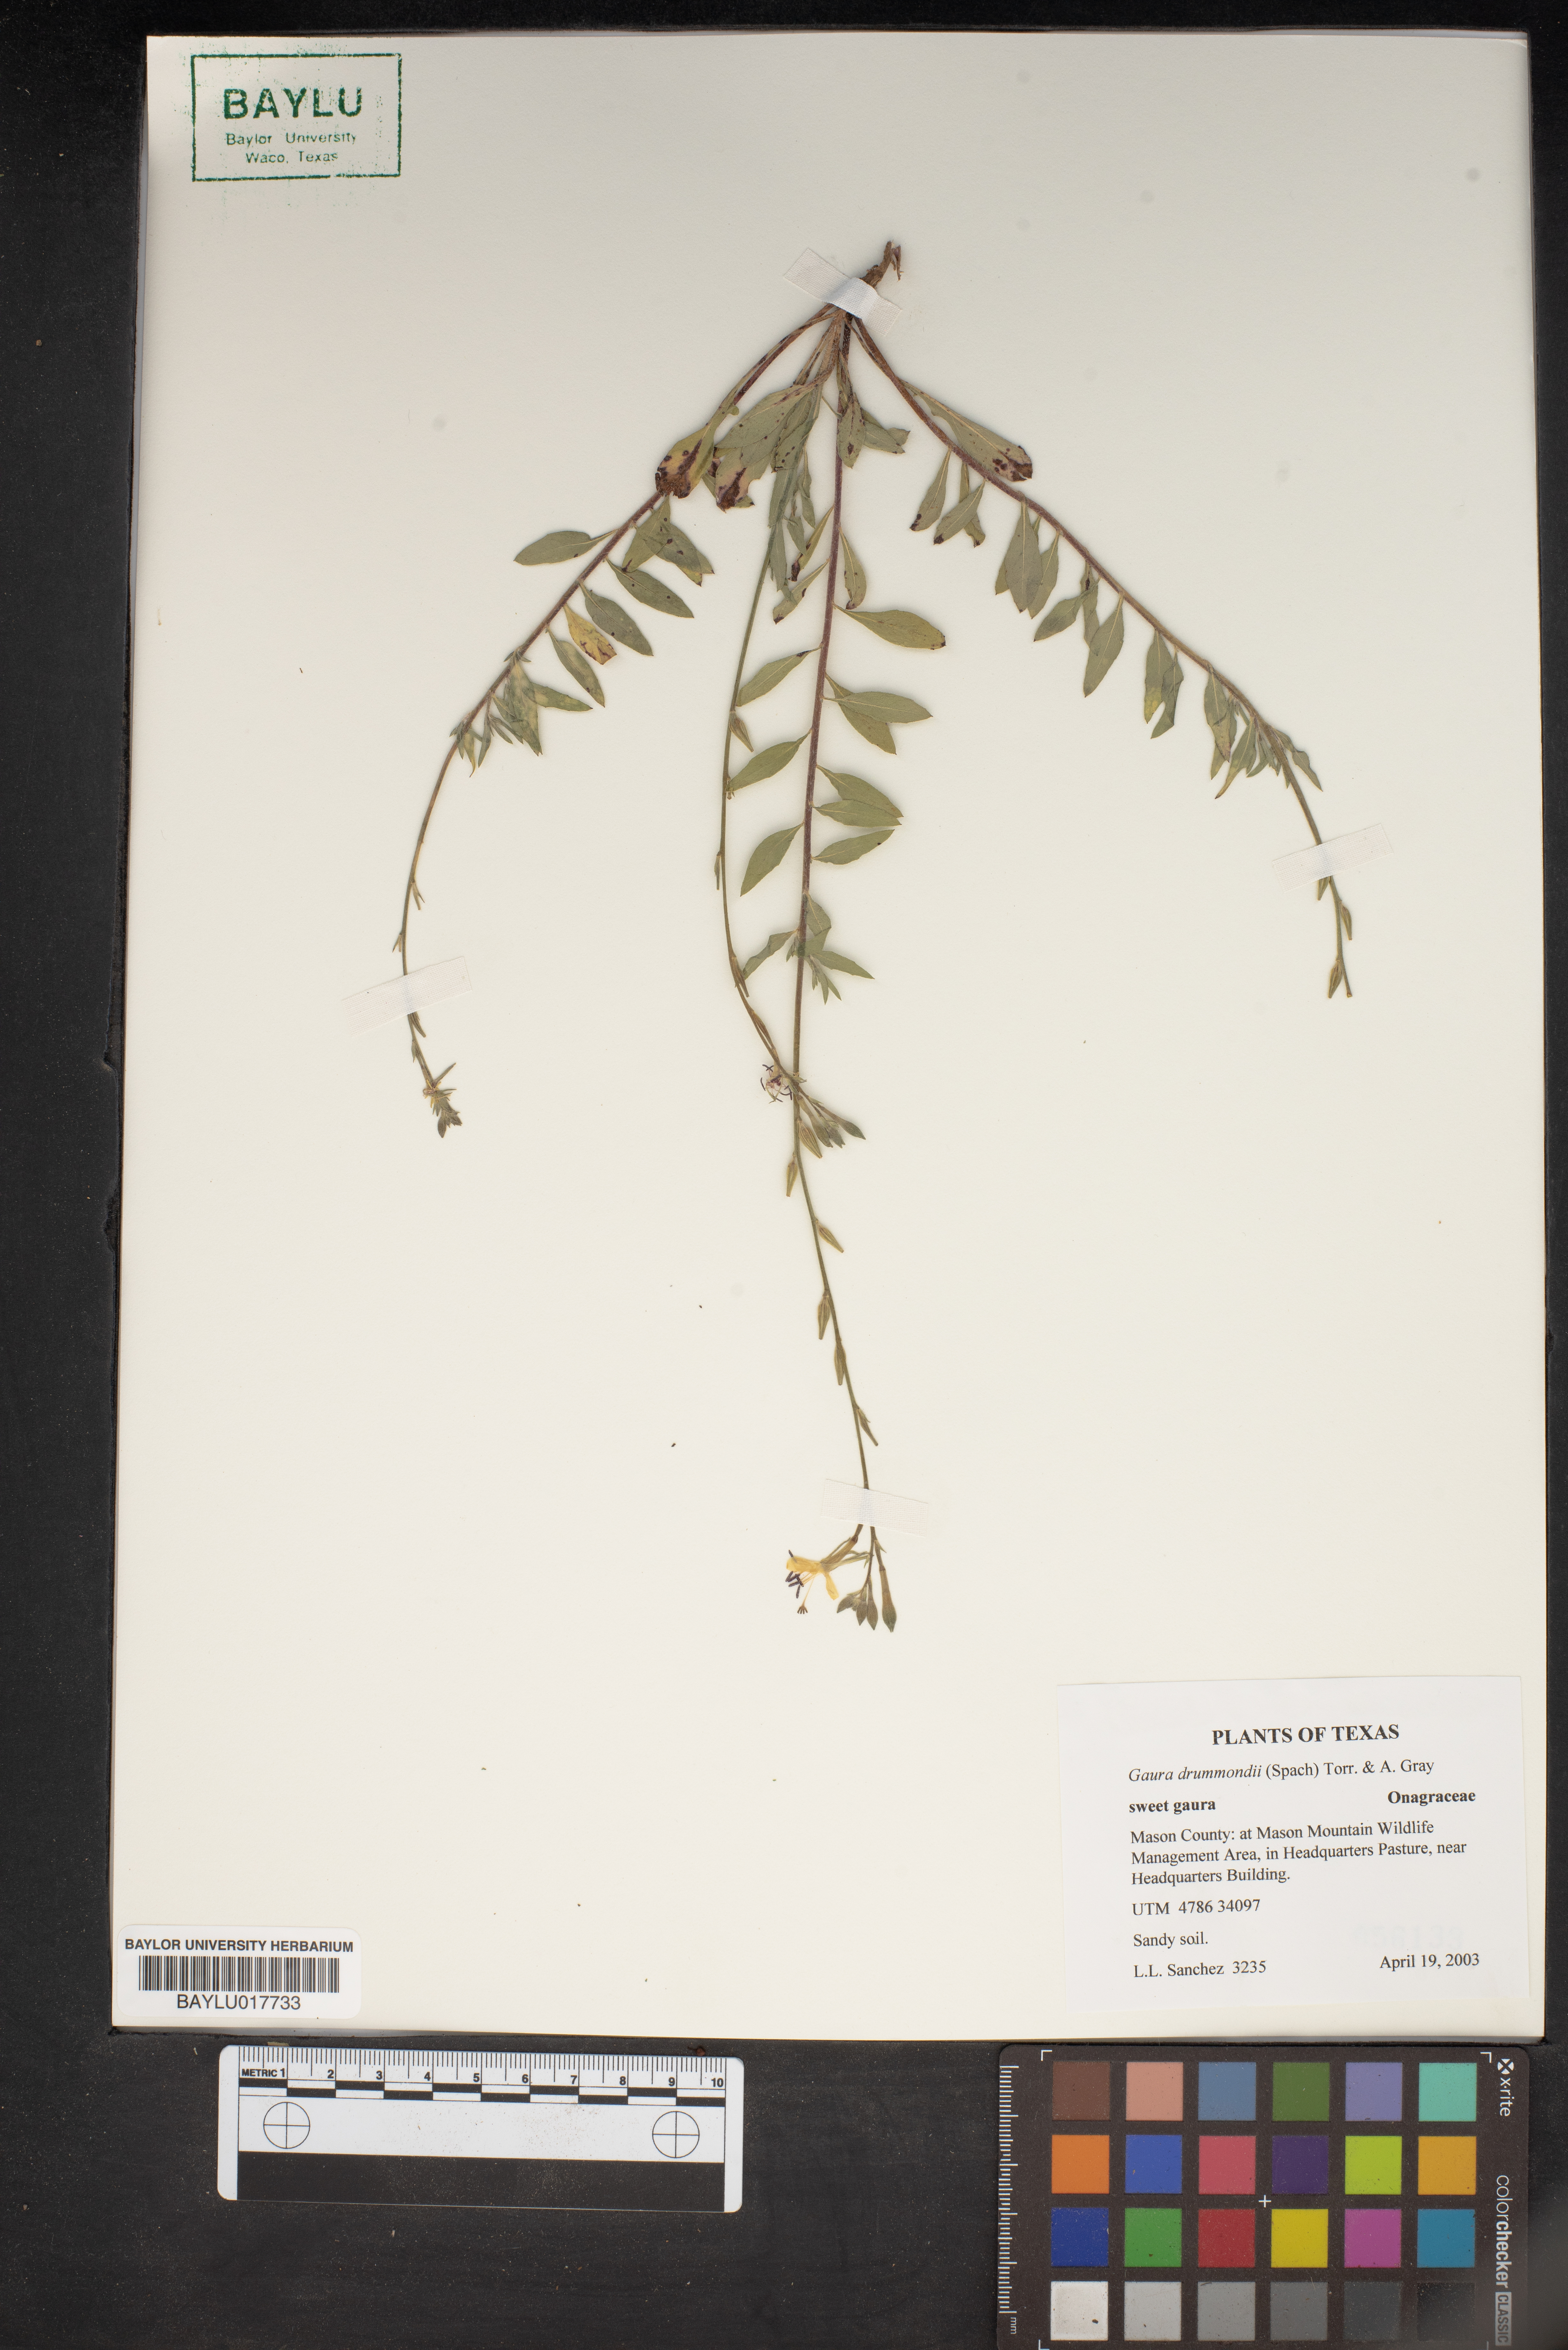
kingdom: Plantae
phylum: Tracheophyta
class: Magnoliopsida
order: Myrtales
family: Onagraceae
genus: Oenothera
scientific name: Oenothera hispida
